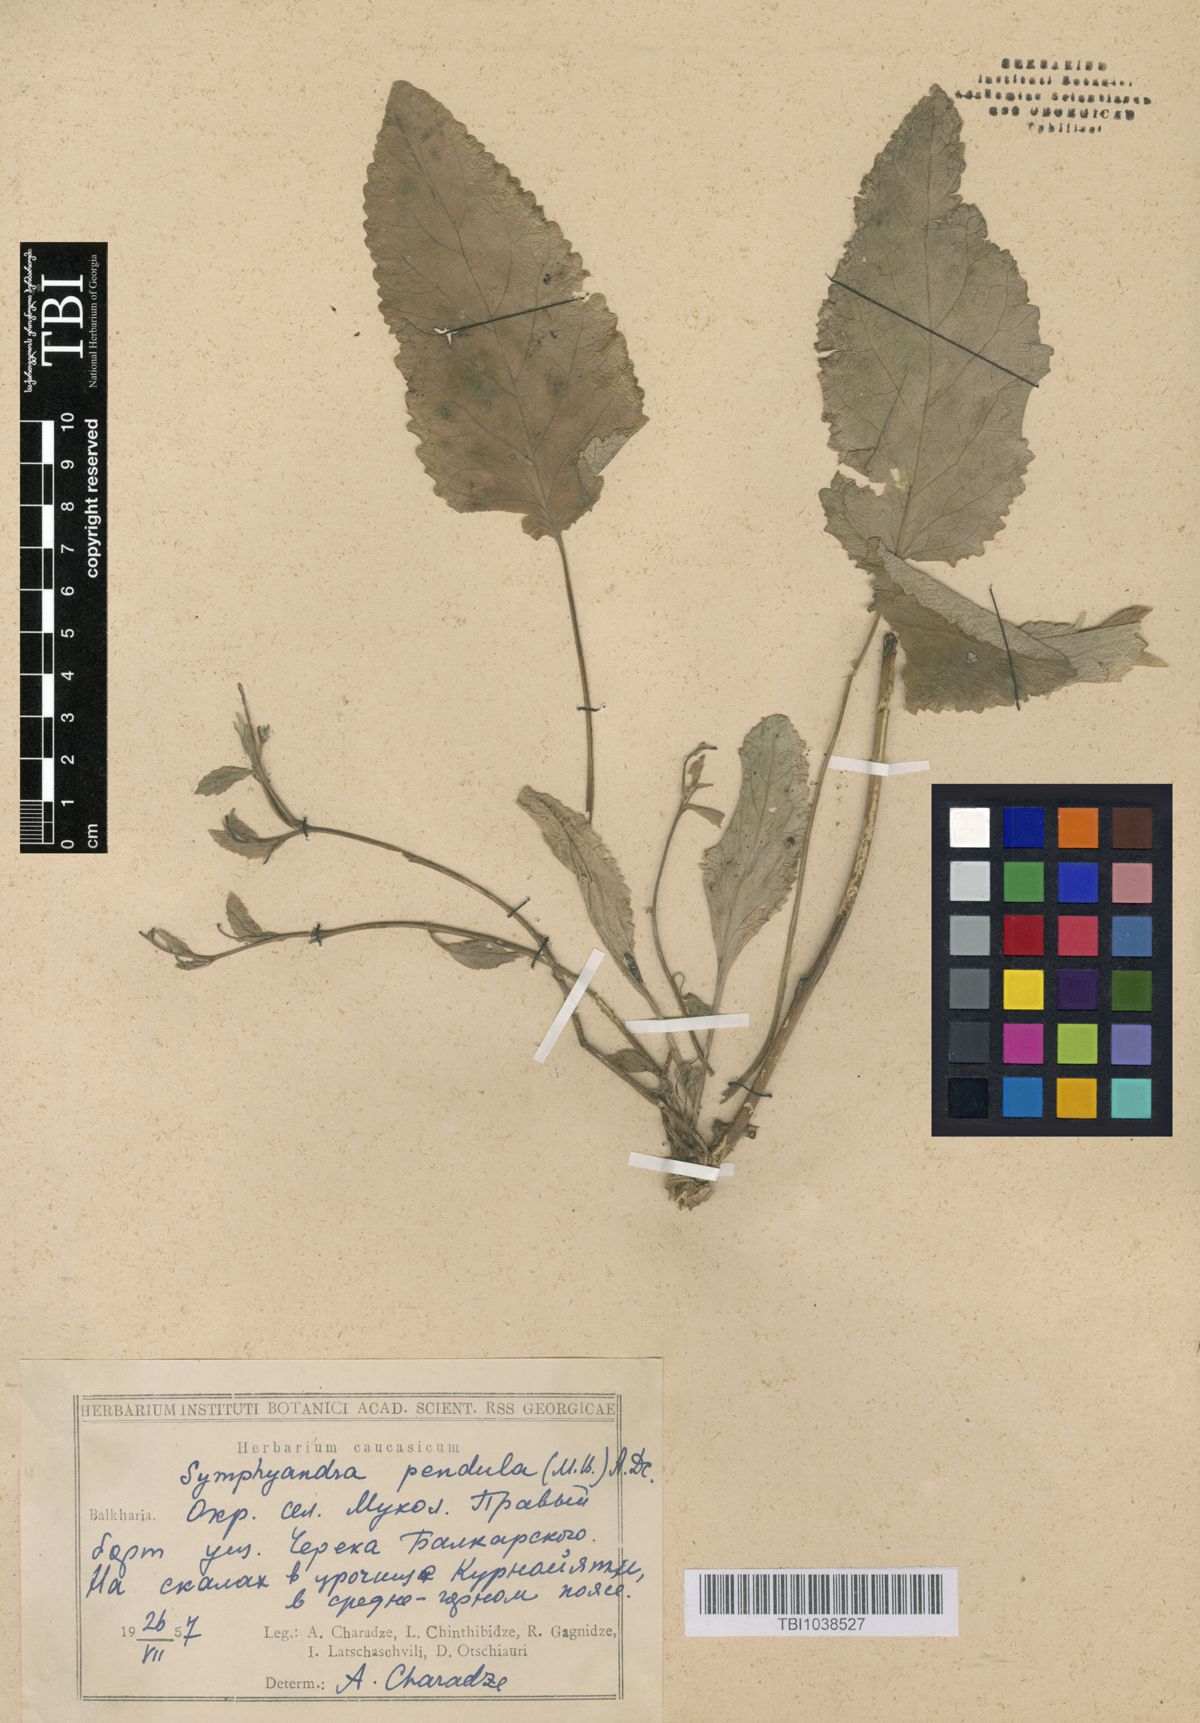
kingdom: Plantae
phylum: Tracheophyta
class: Magnoliopsida
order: Asterales
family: Campanulaceae
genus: Campanula
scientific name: Campanula pendula
